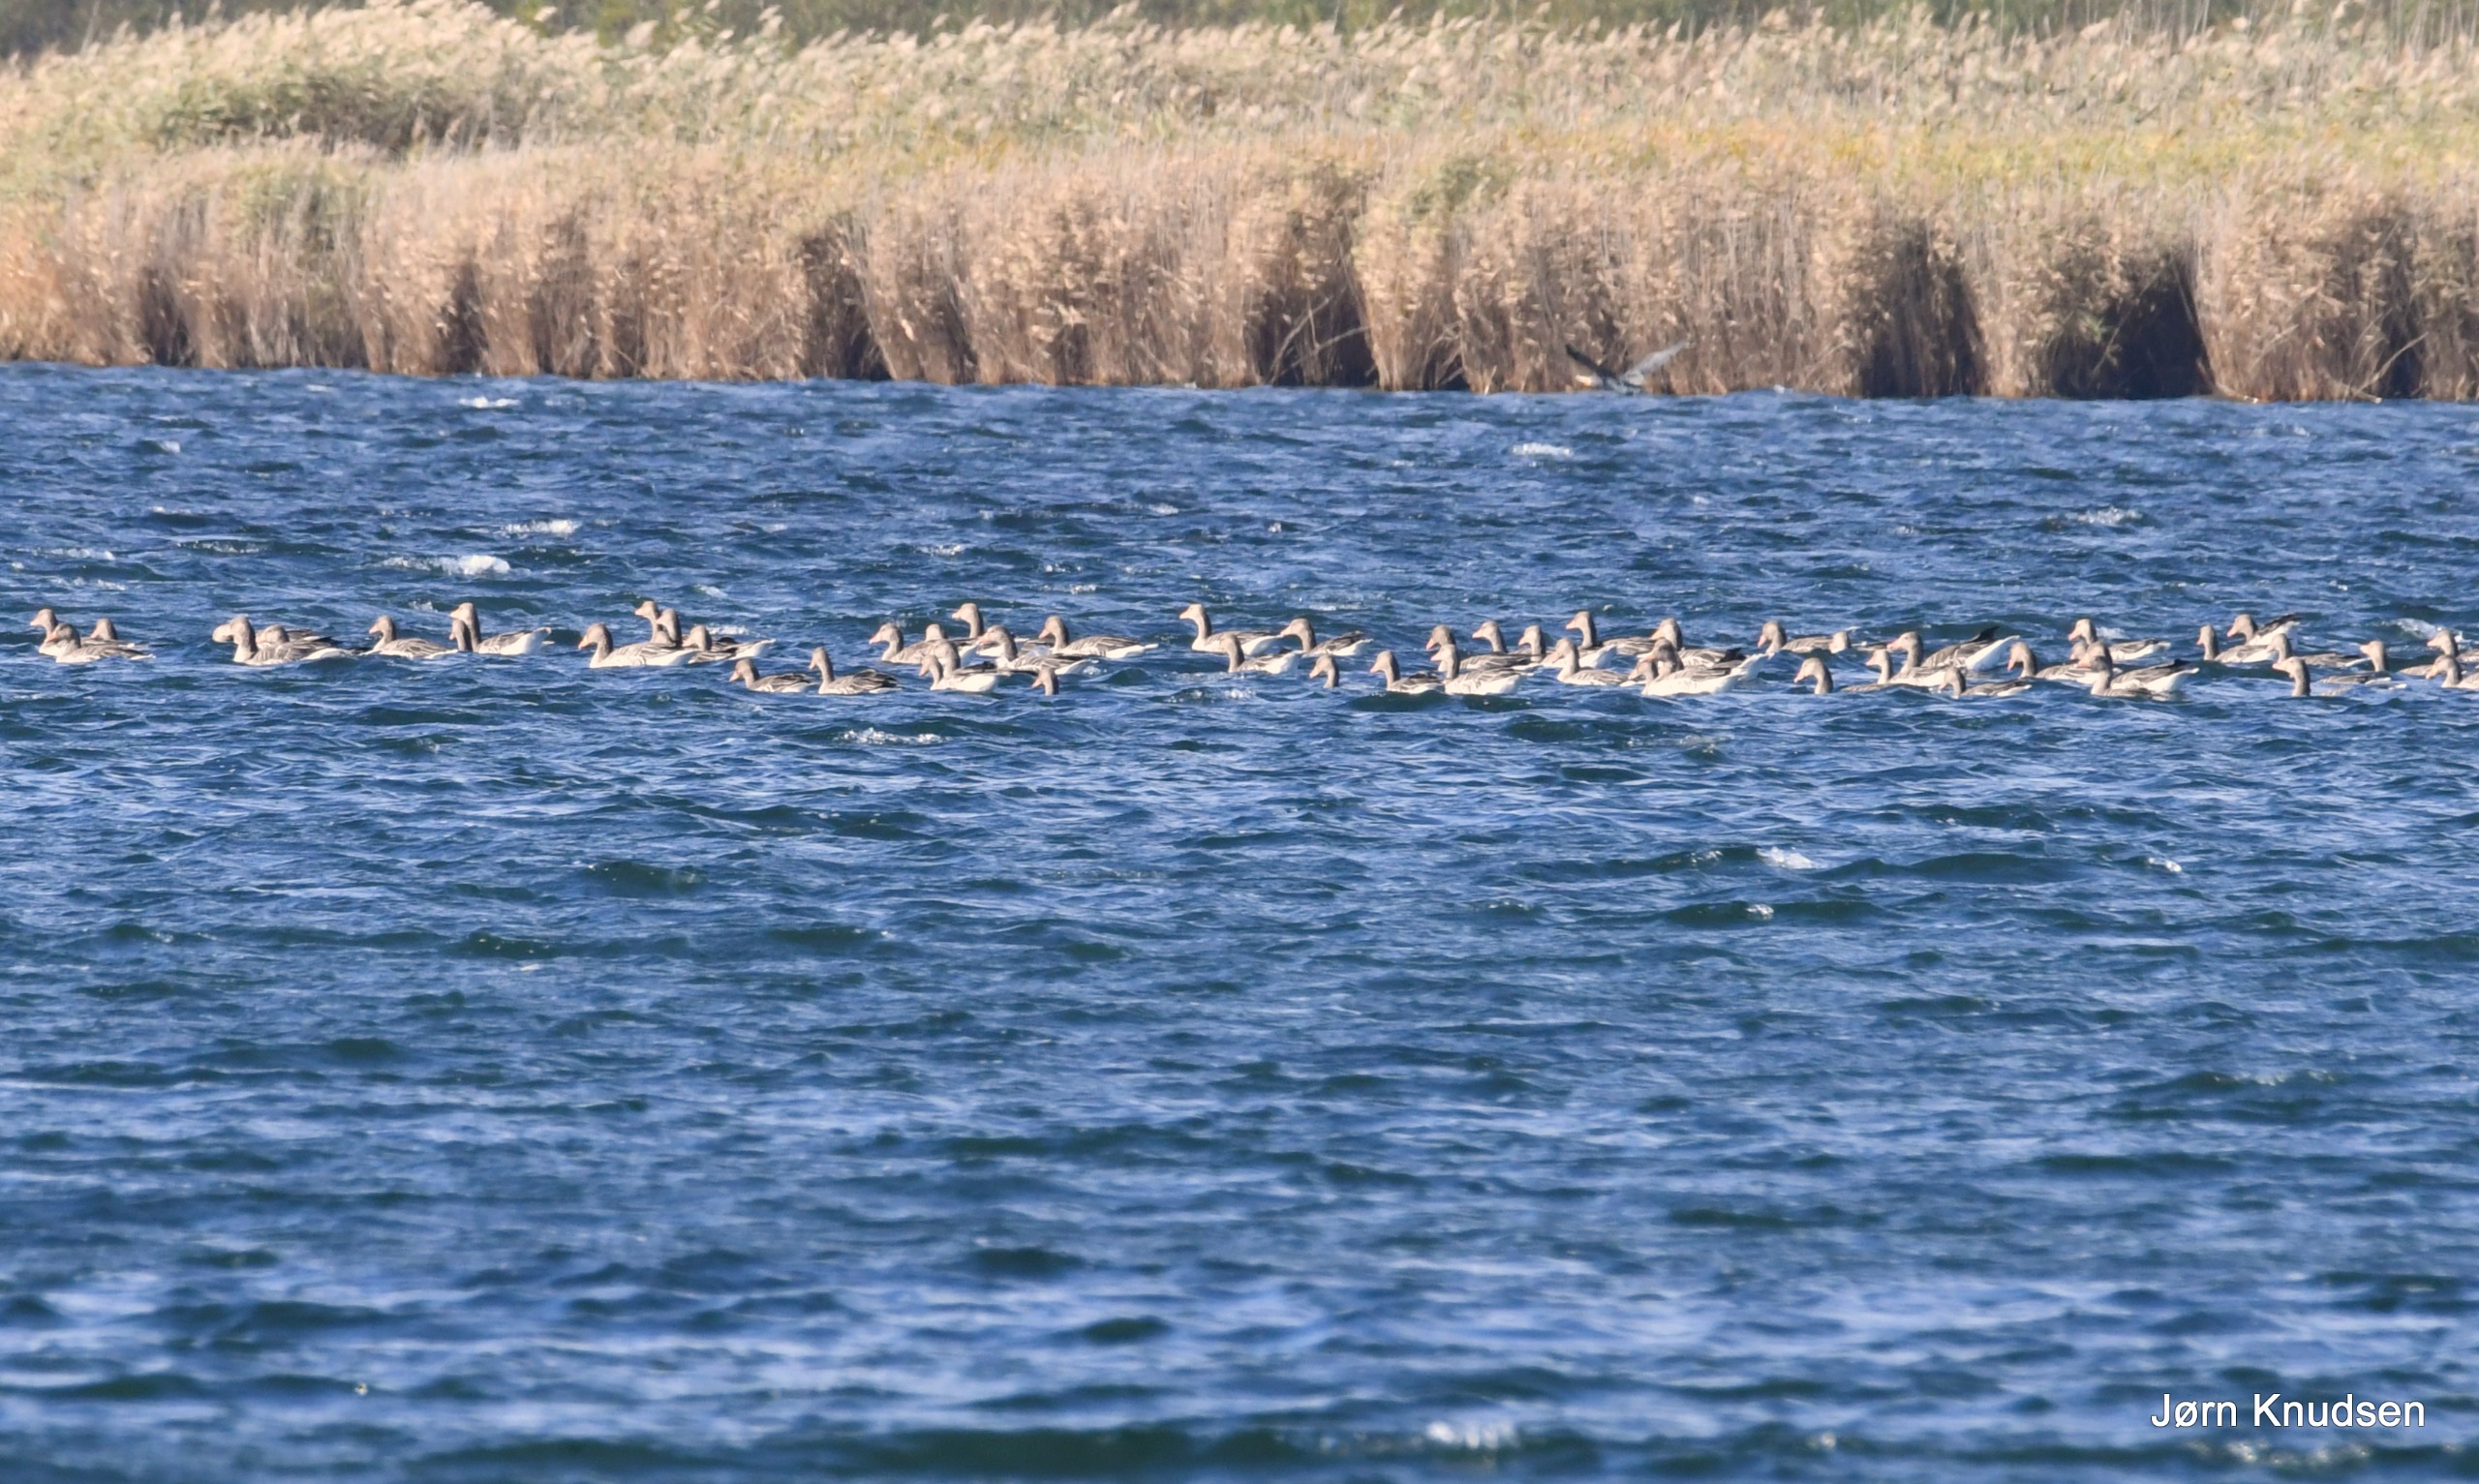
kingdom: Animalia
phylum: Chordata
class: Aves
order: Anseriformes
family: Anatidae
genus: Anser
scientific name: Anser anser
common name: Grågås
